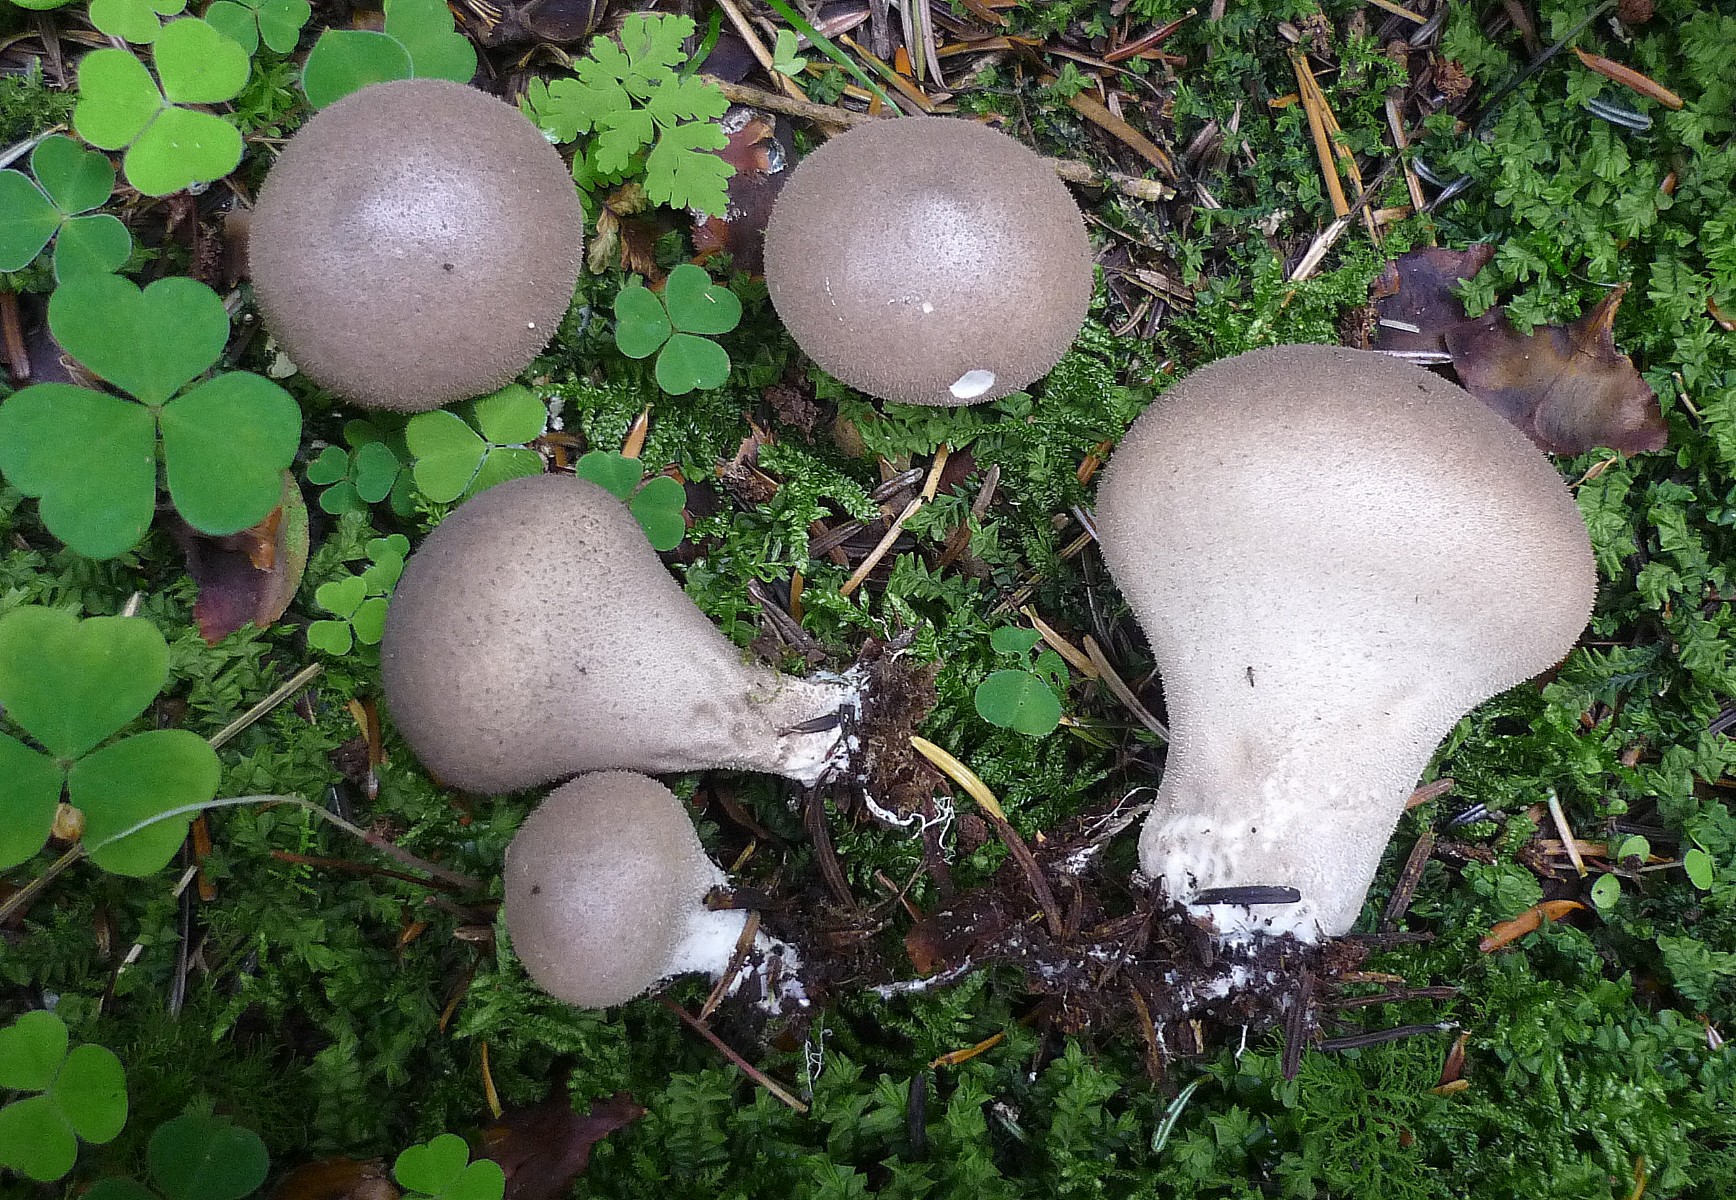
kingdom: Fungi
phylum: Basidiomycota
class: Agaricomycetes
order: Agaricales
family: Lycoperdaceae
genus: Lycoperdon
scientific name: Lycoperdon molle
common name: skov-støvbold
